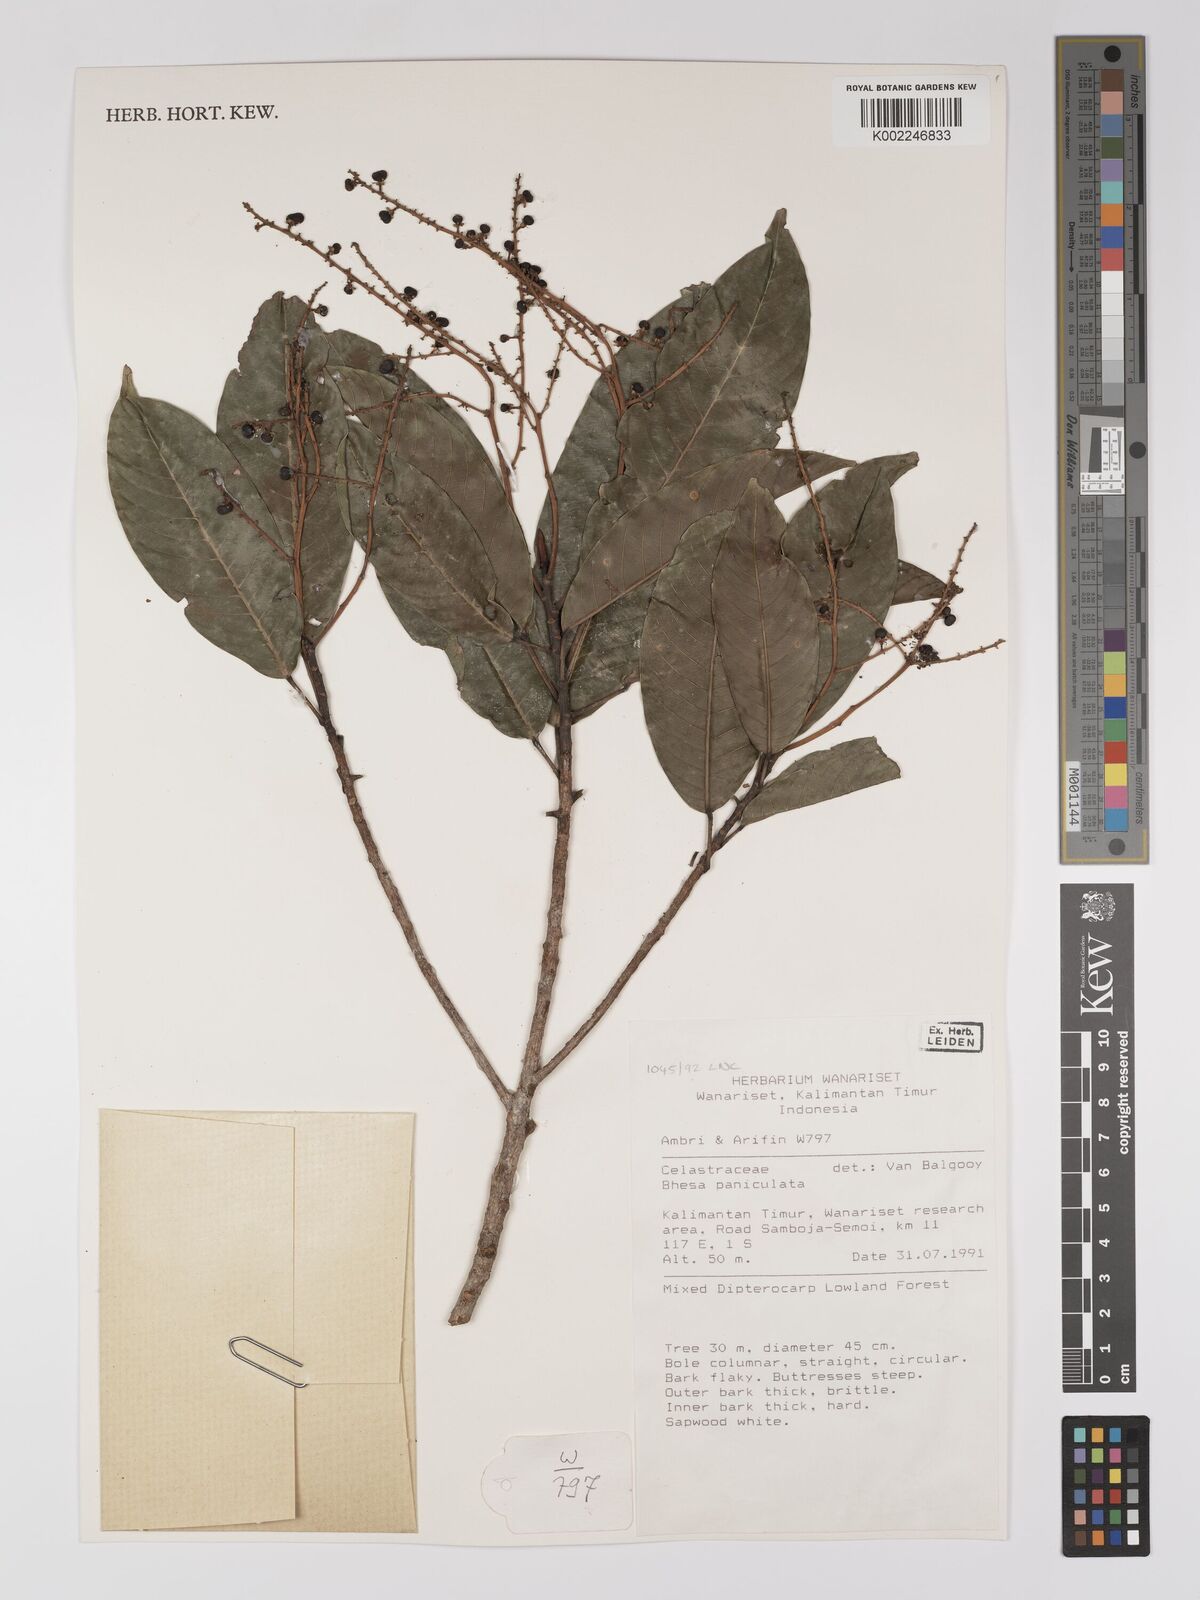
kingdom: Plantae
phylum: Tracheophyta
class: Magnoliopsida
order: Malpighiales
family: Centroplacaceae
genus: Bhesa
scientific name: Bhesa paniculata
